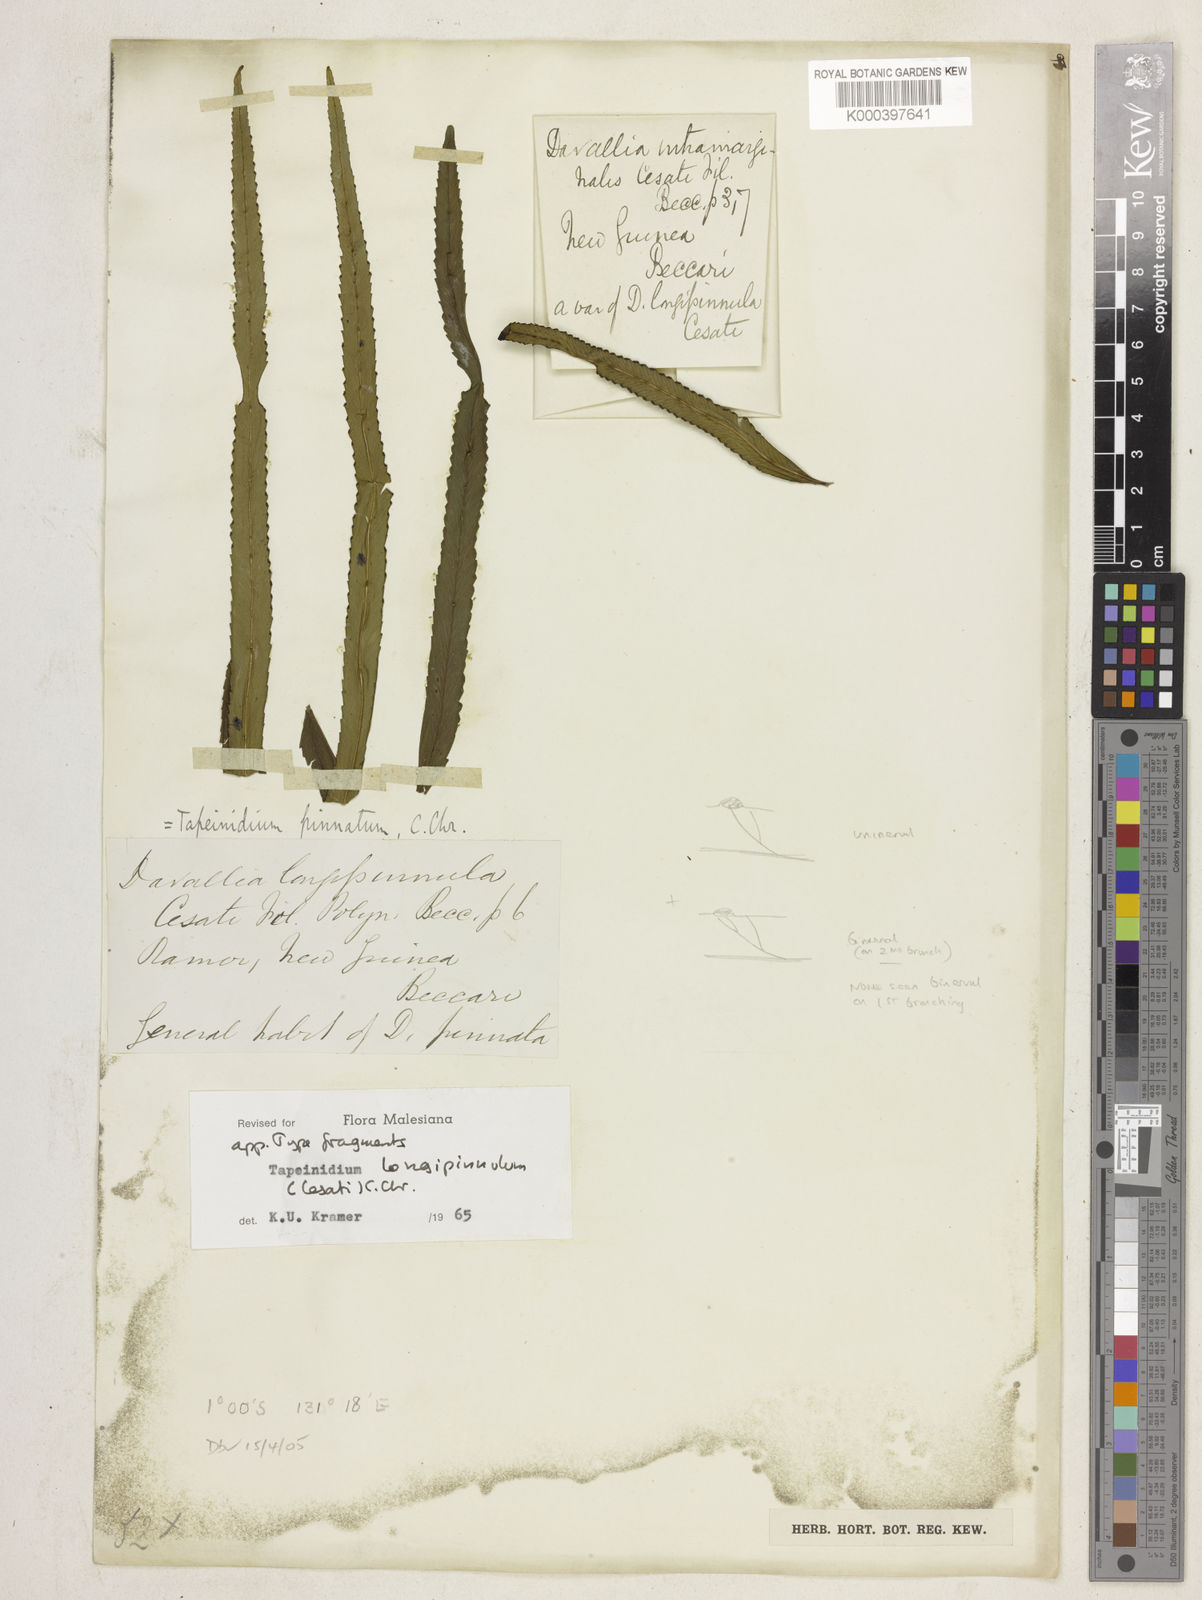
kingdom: Plantae
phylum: Tracheophyta
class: Polypodiopsida
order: Polypodiales
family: Lindsaeaceae
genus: Tapeinidium
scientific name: Tapeinidium longipinnulum
